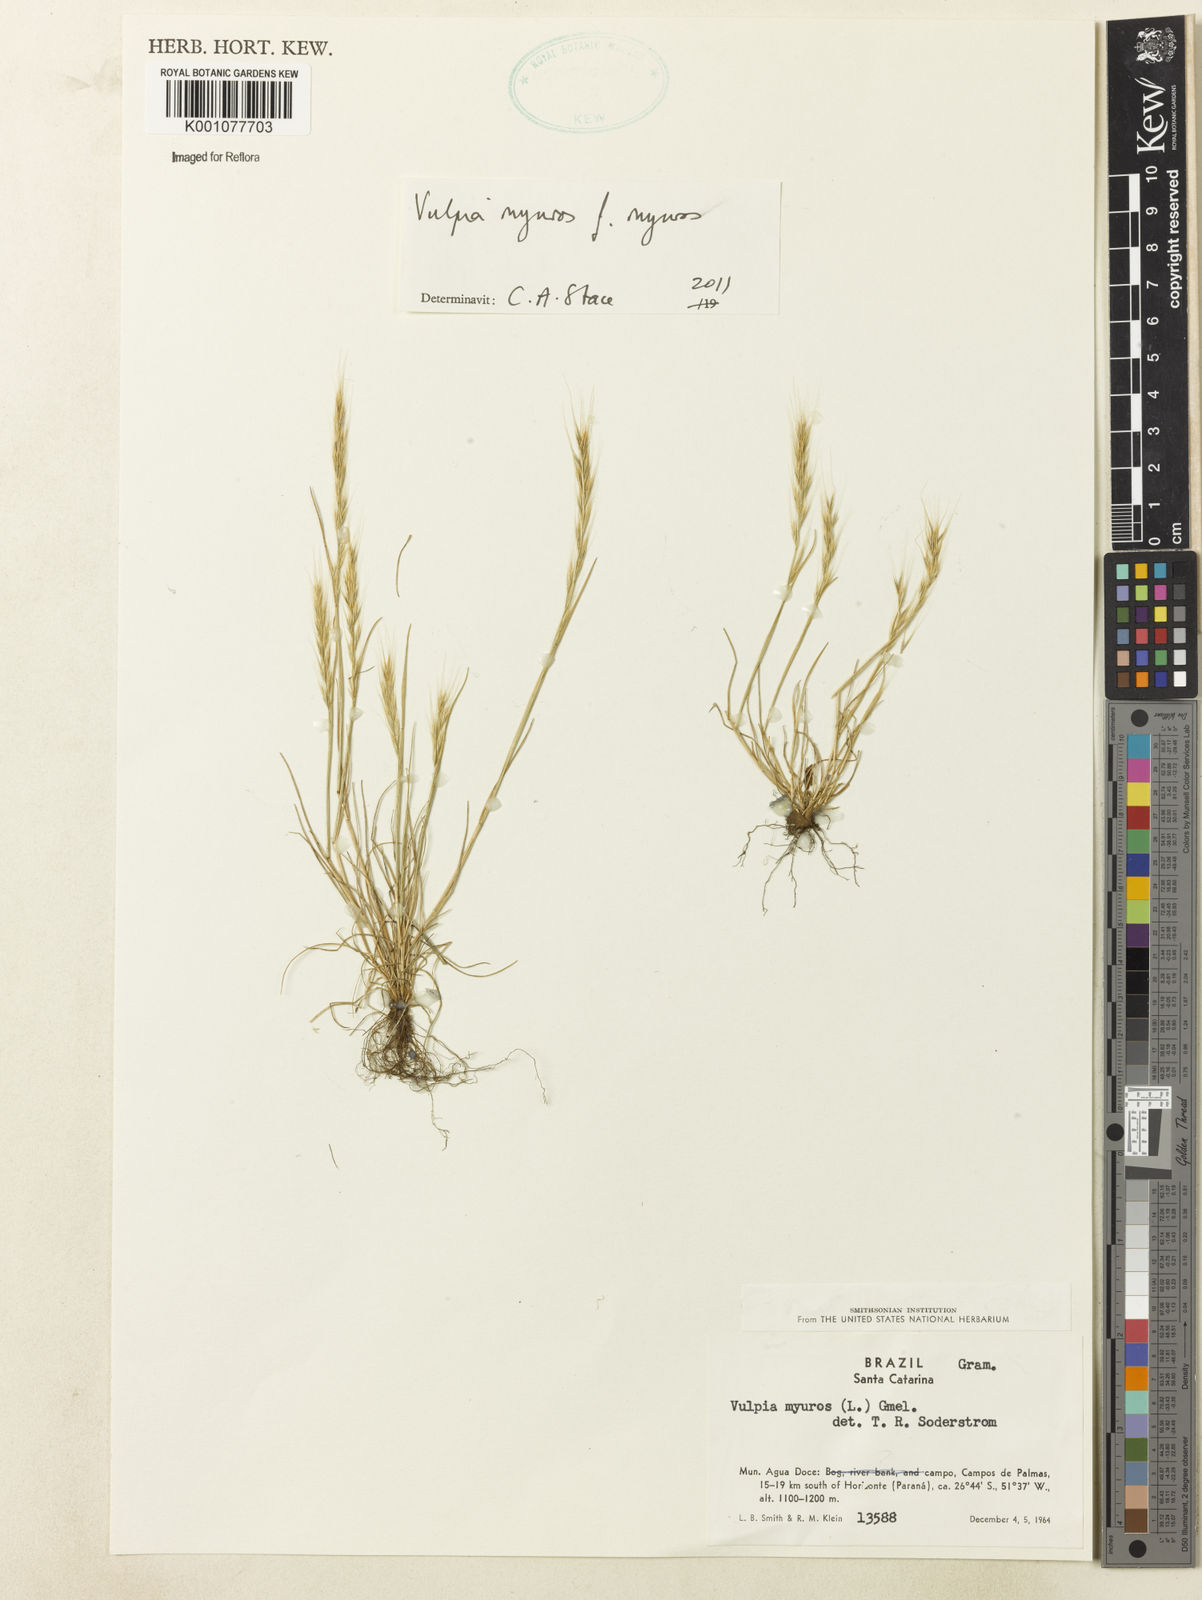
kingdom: Plantae
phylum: Tracheophyta
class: Liliopsida
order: Poales
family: Poaceae
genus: Festuca
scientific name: Festuca myuros
